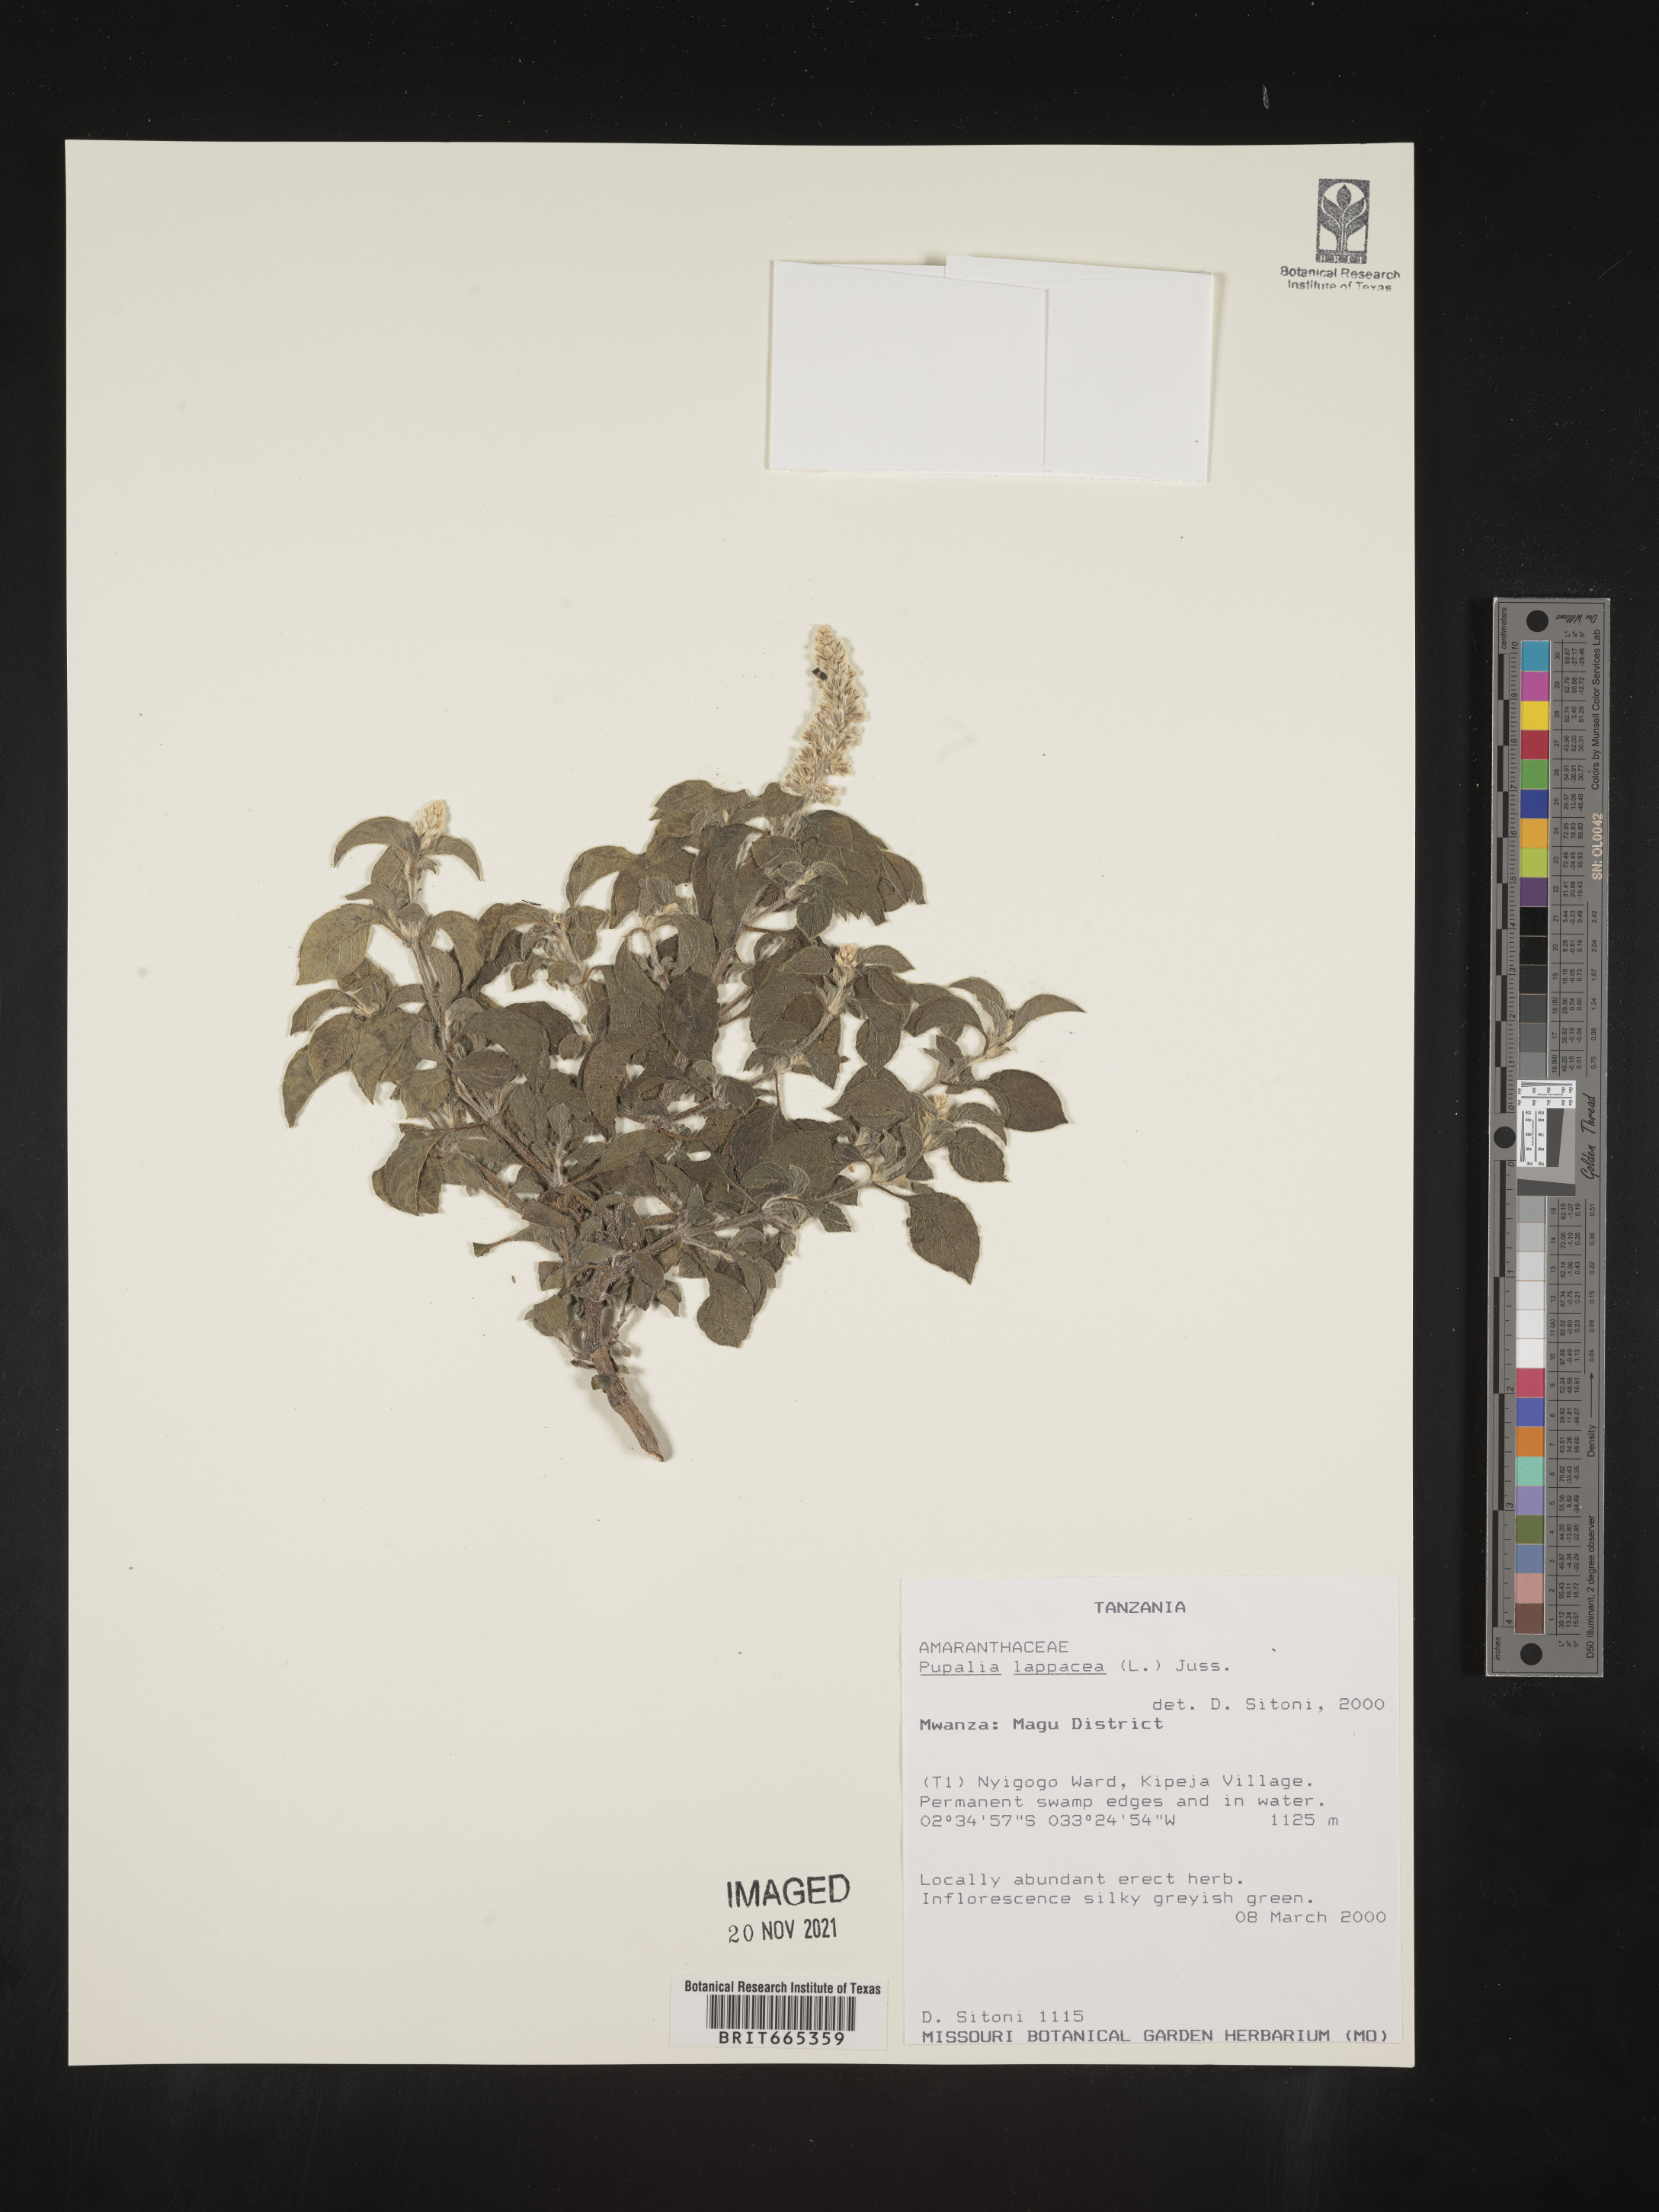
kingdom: Plantae
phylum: Tracheophyta
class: Magnoliopsida
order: Caryophyllales
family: Amaranthaceae
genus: Pupalia
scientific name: Pupalia
